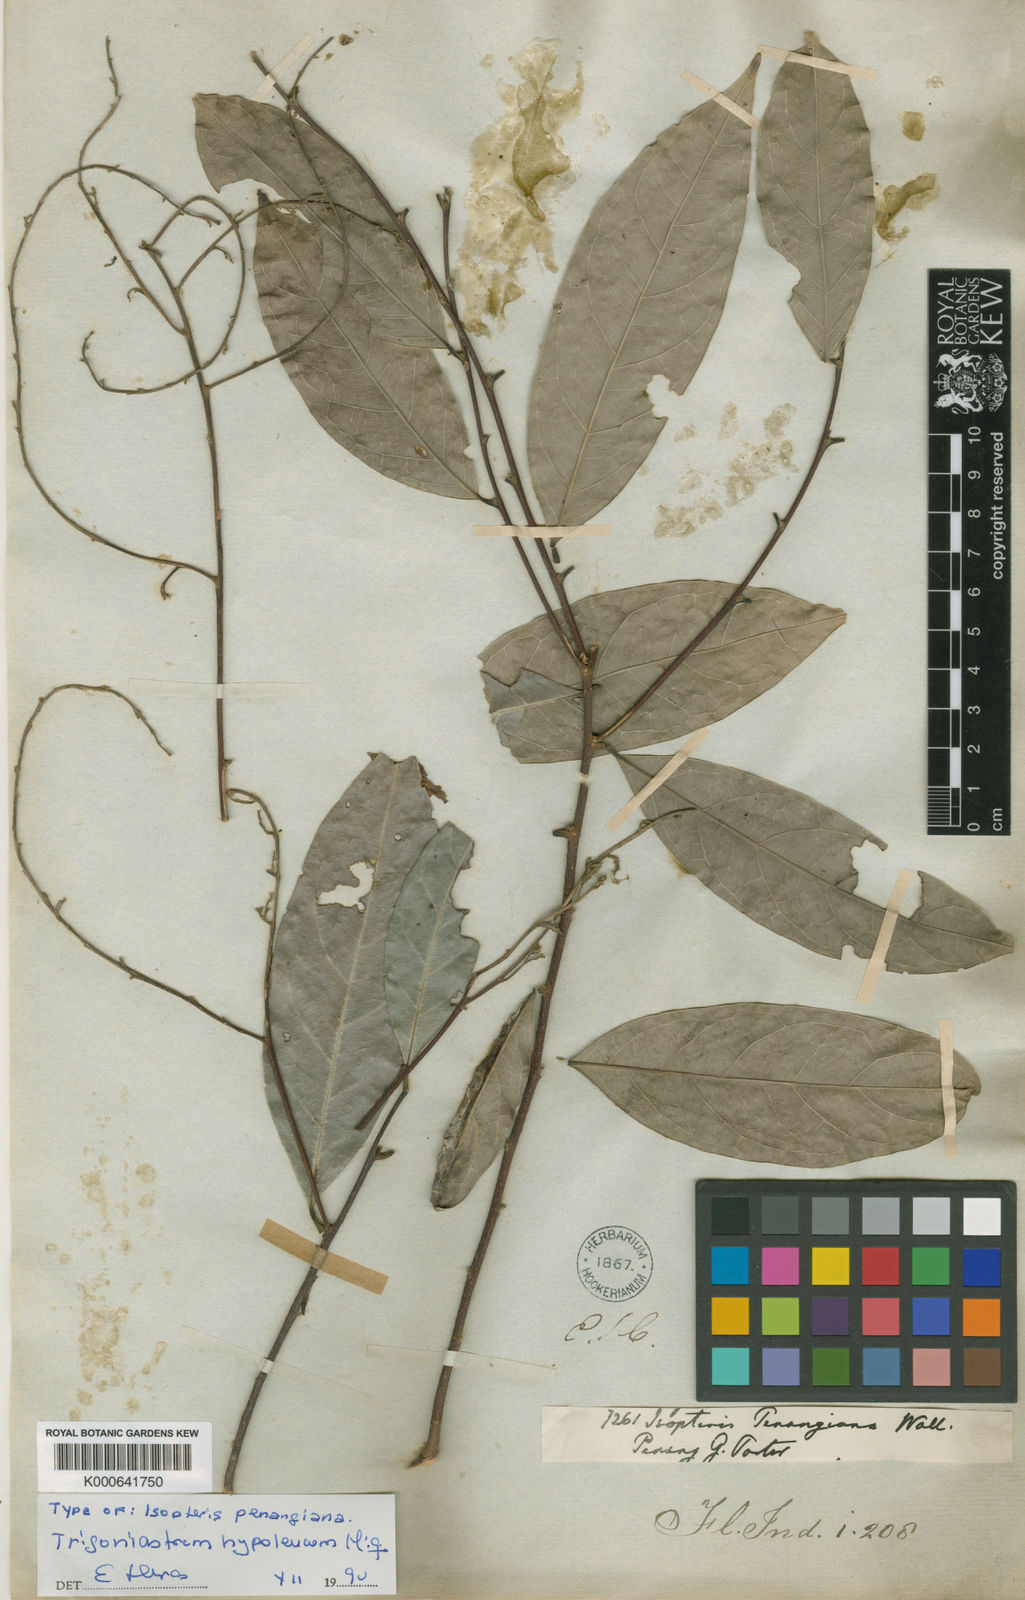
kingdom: Plantae
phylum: Tracheophyta
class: Magnoliopsida
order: Malpighiales
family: Trigoniaceae
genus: Trigoniastrum
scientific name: Trigoniastrum hypoleucum
